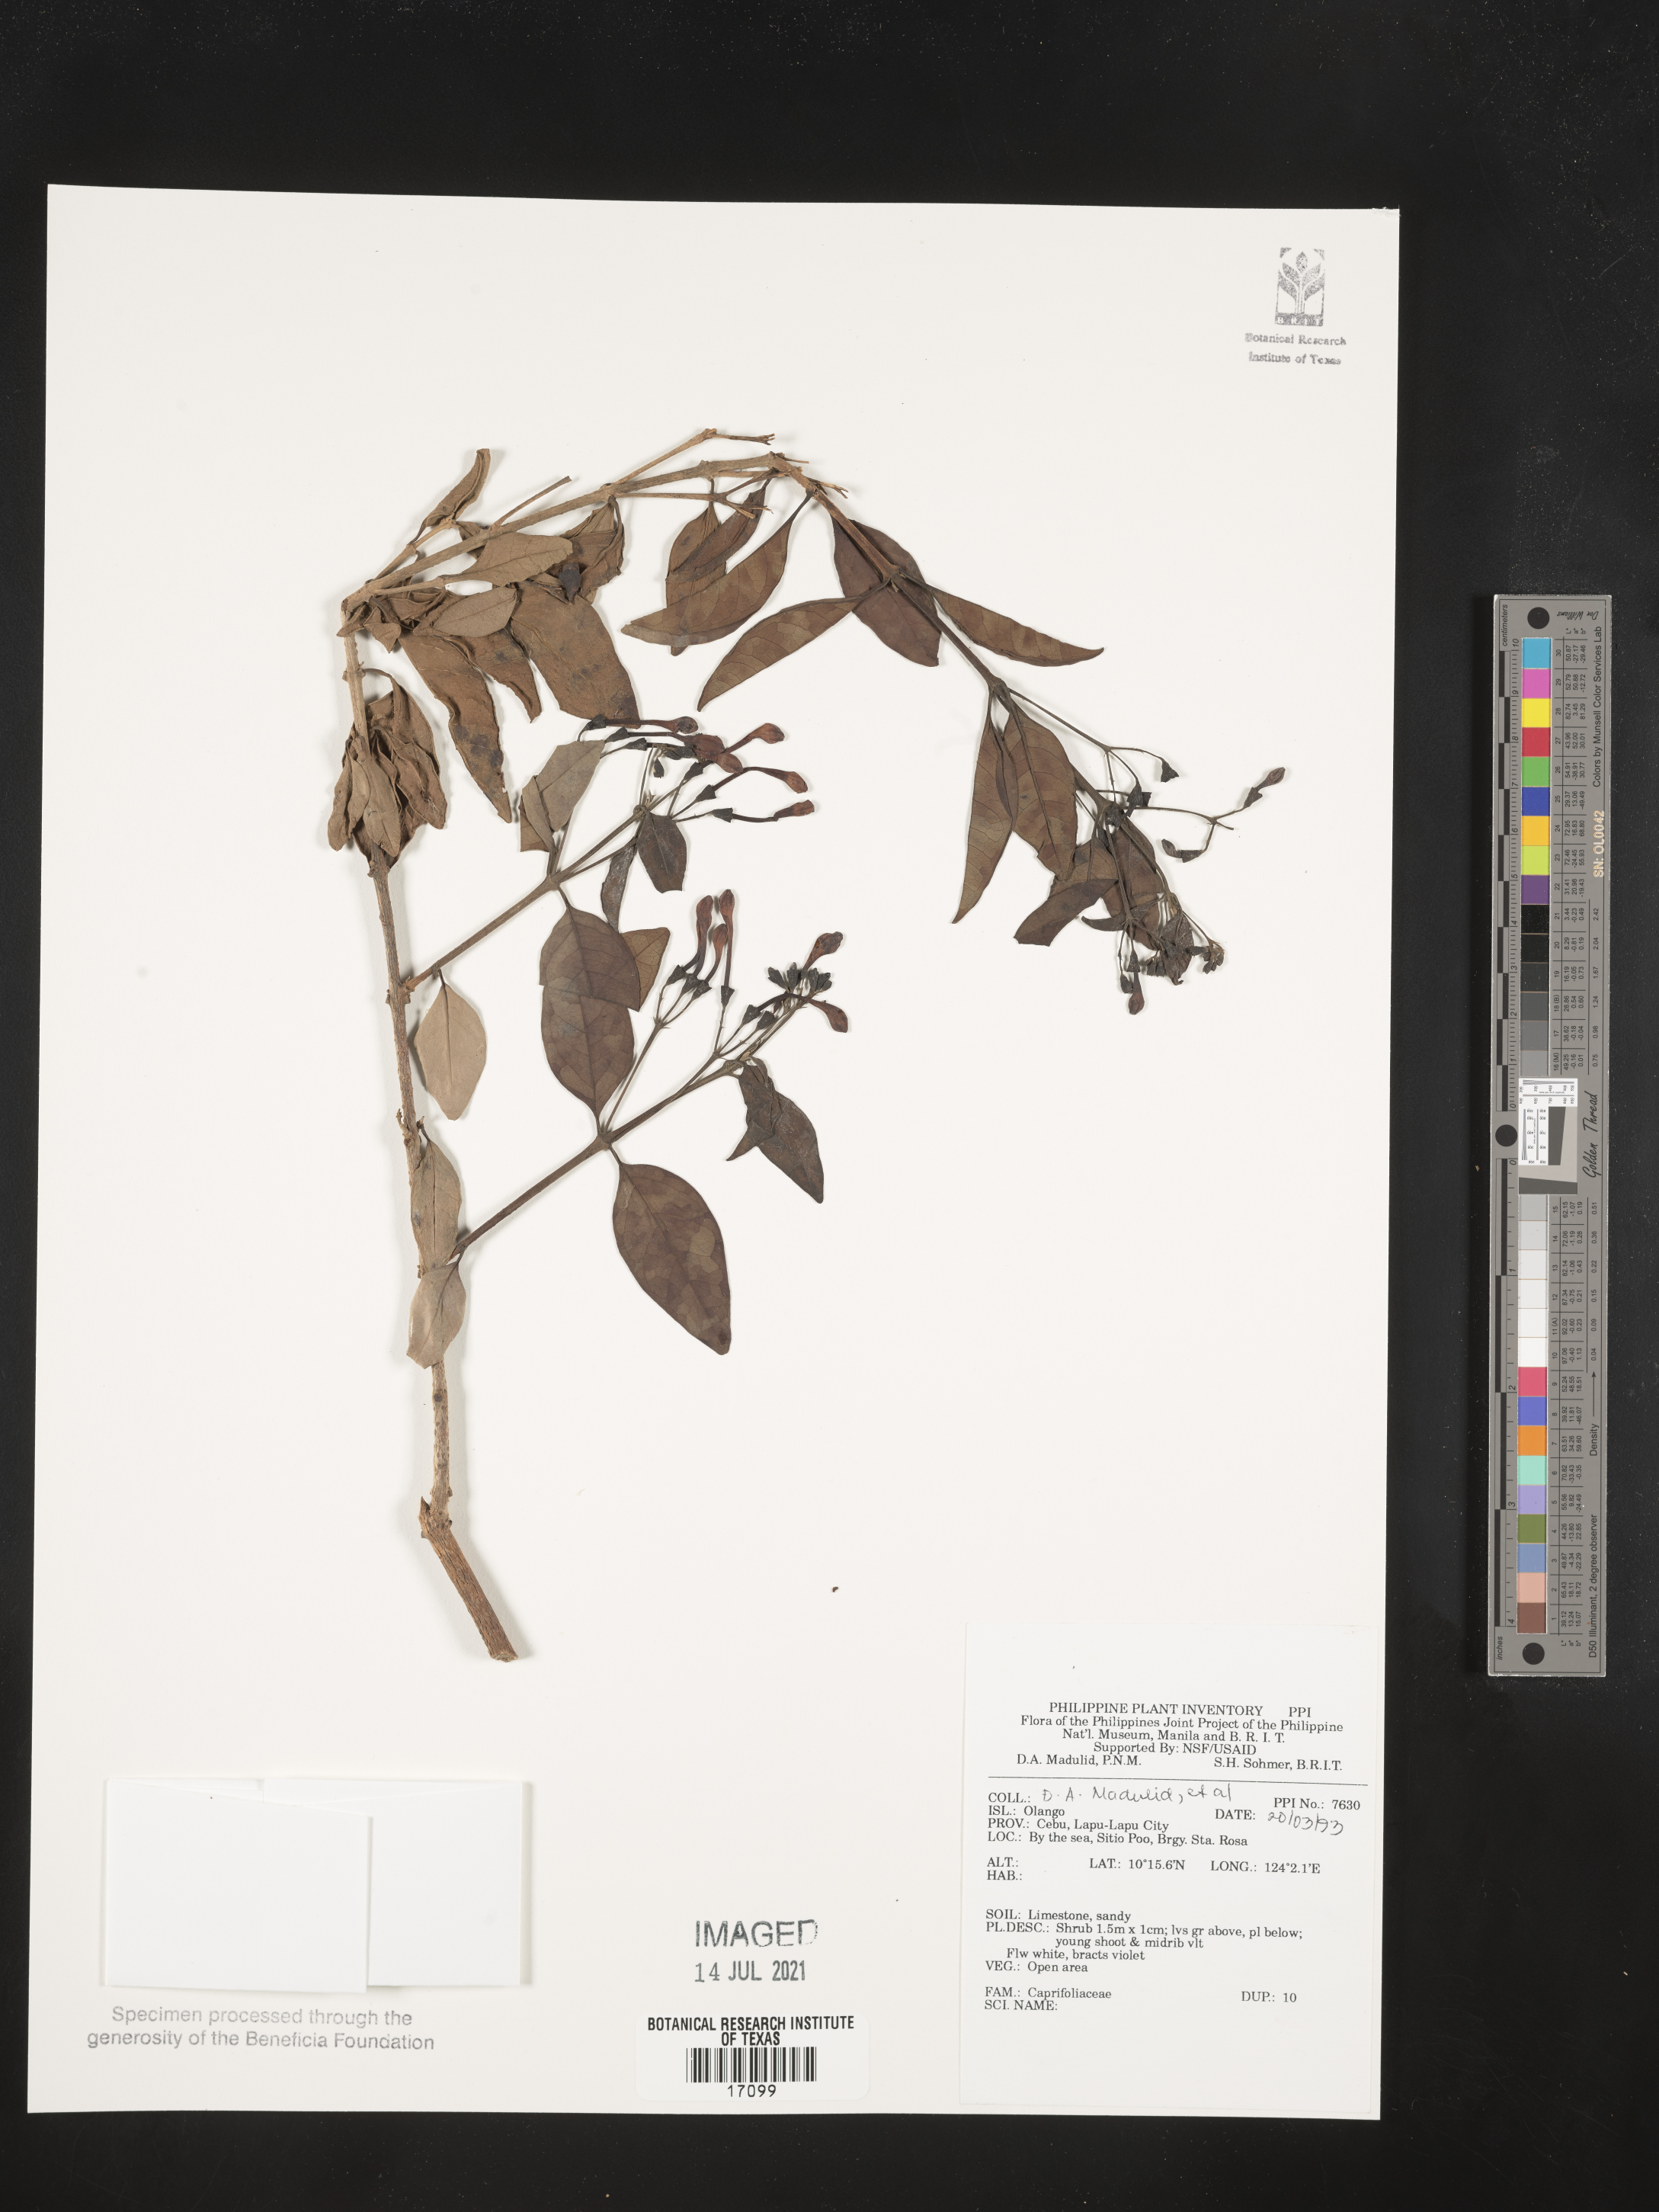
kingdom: Plantae
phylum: Tracheophyta
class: Magnoliopsida
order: Dipsacales
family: Caprifoliaceae
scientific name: Caprifoliaceae
